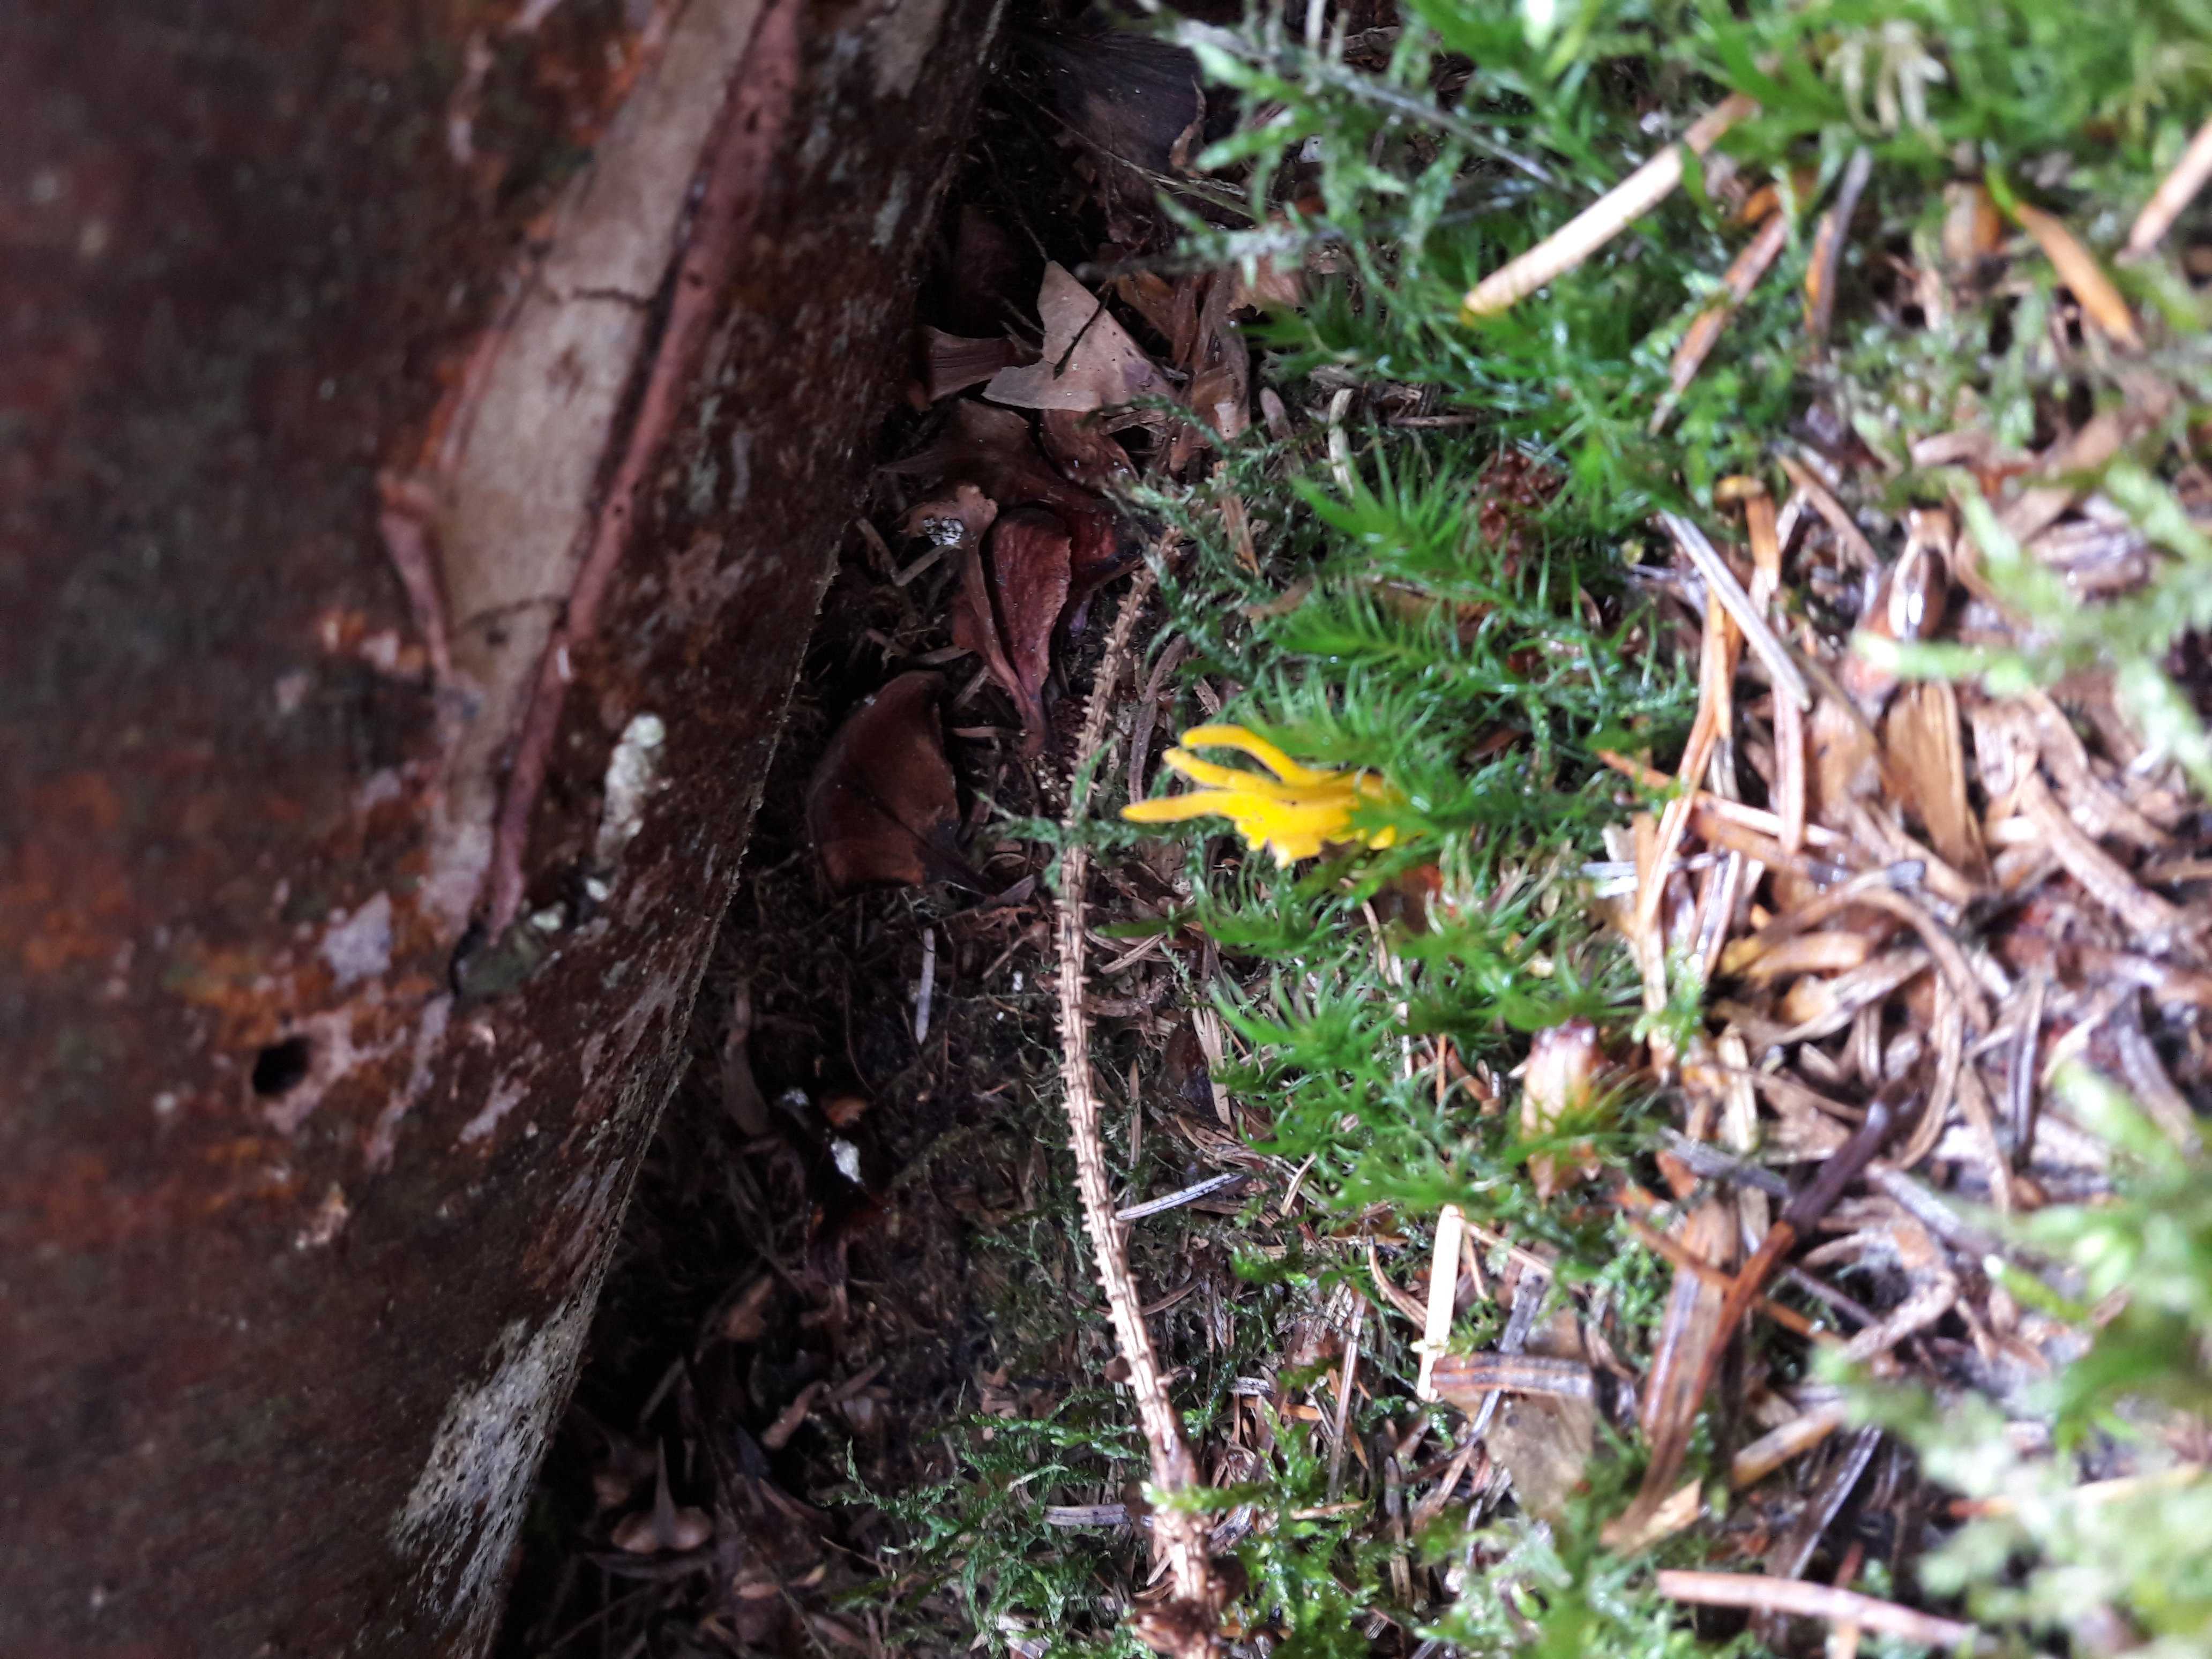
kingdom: Fungi
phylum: Basidiomycota
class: Dacrymycetes
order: Dacrymycetales
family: Dacrymycetaceae
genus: Calocera
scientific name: Calocera viscosa
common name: almindelig guldgaffel
